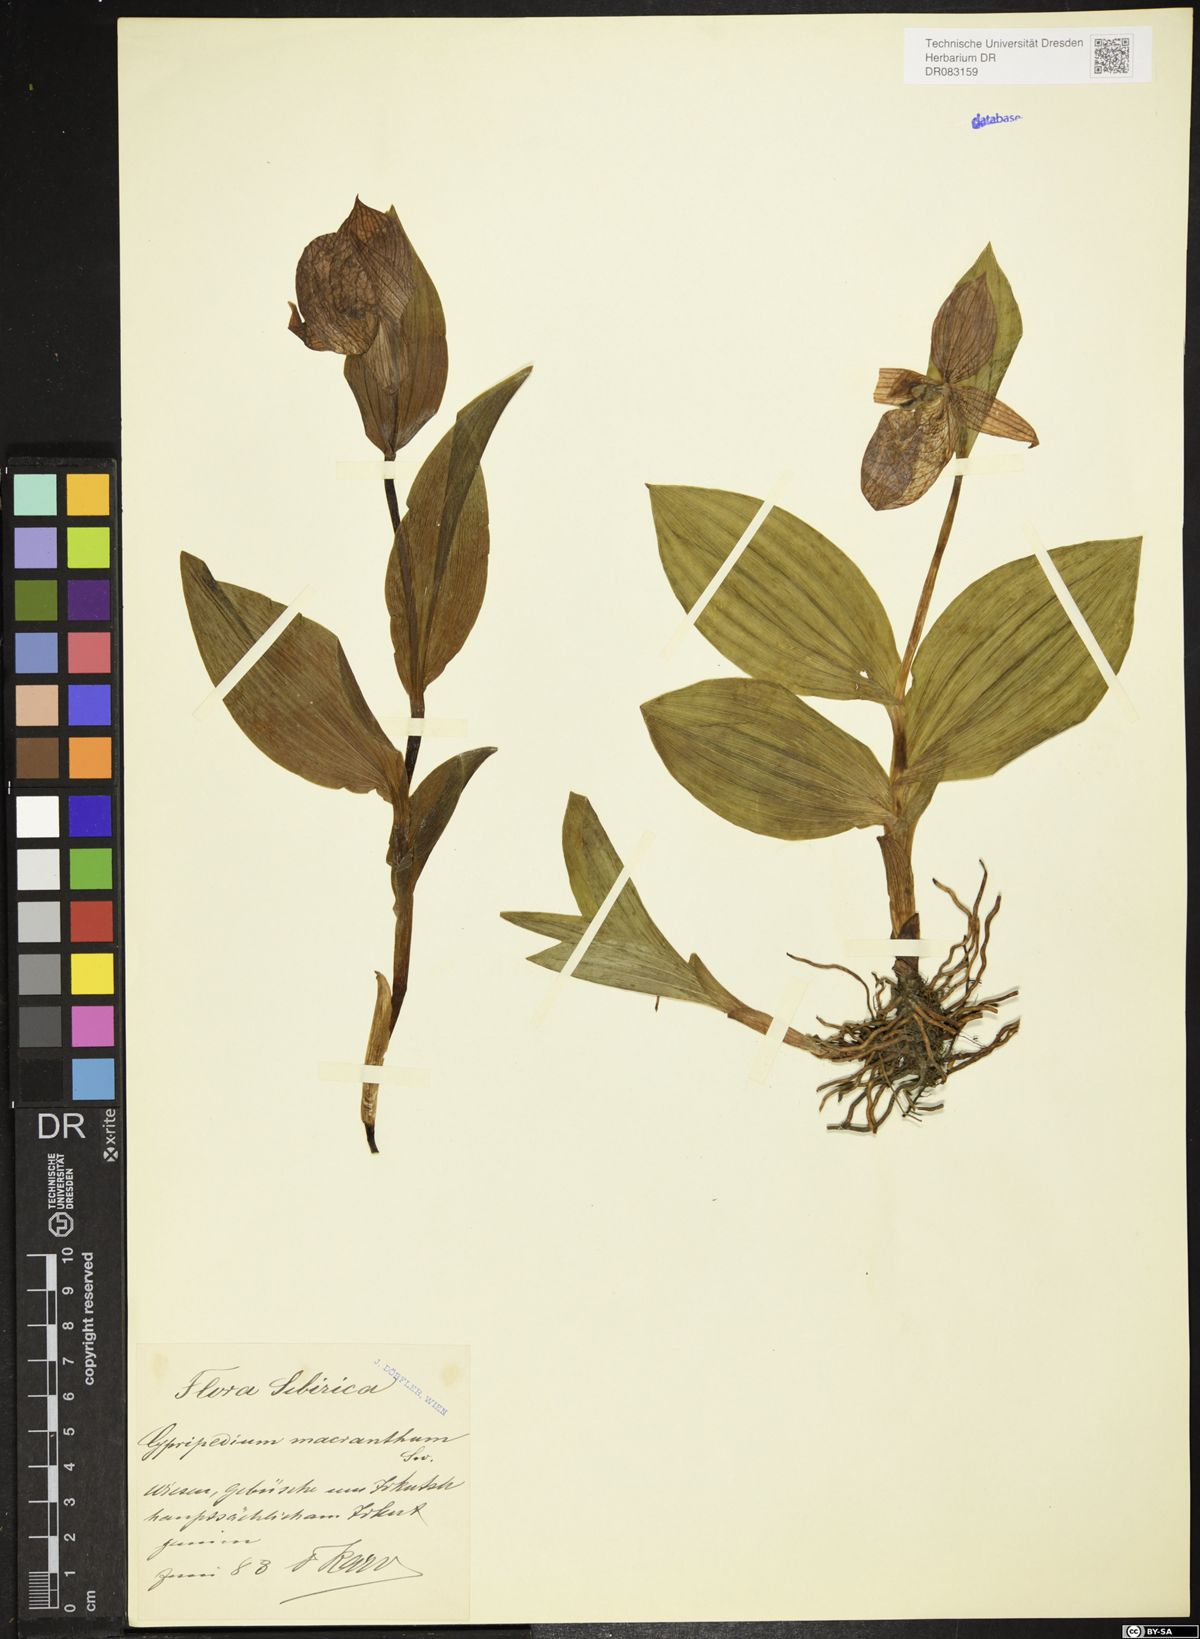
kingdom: Plantae
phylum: Tracheophyta
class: Liliopsida
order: Asparagales
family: Orchidaceae
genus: Cypripedium
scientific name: Cypripedium macranthos
